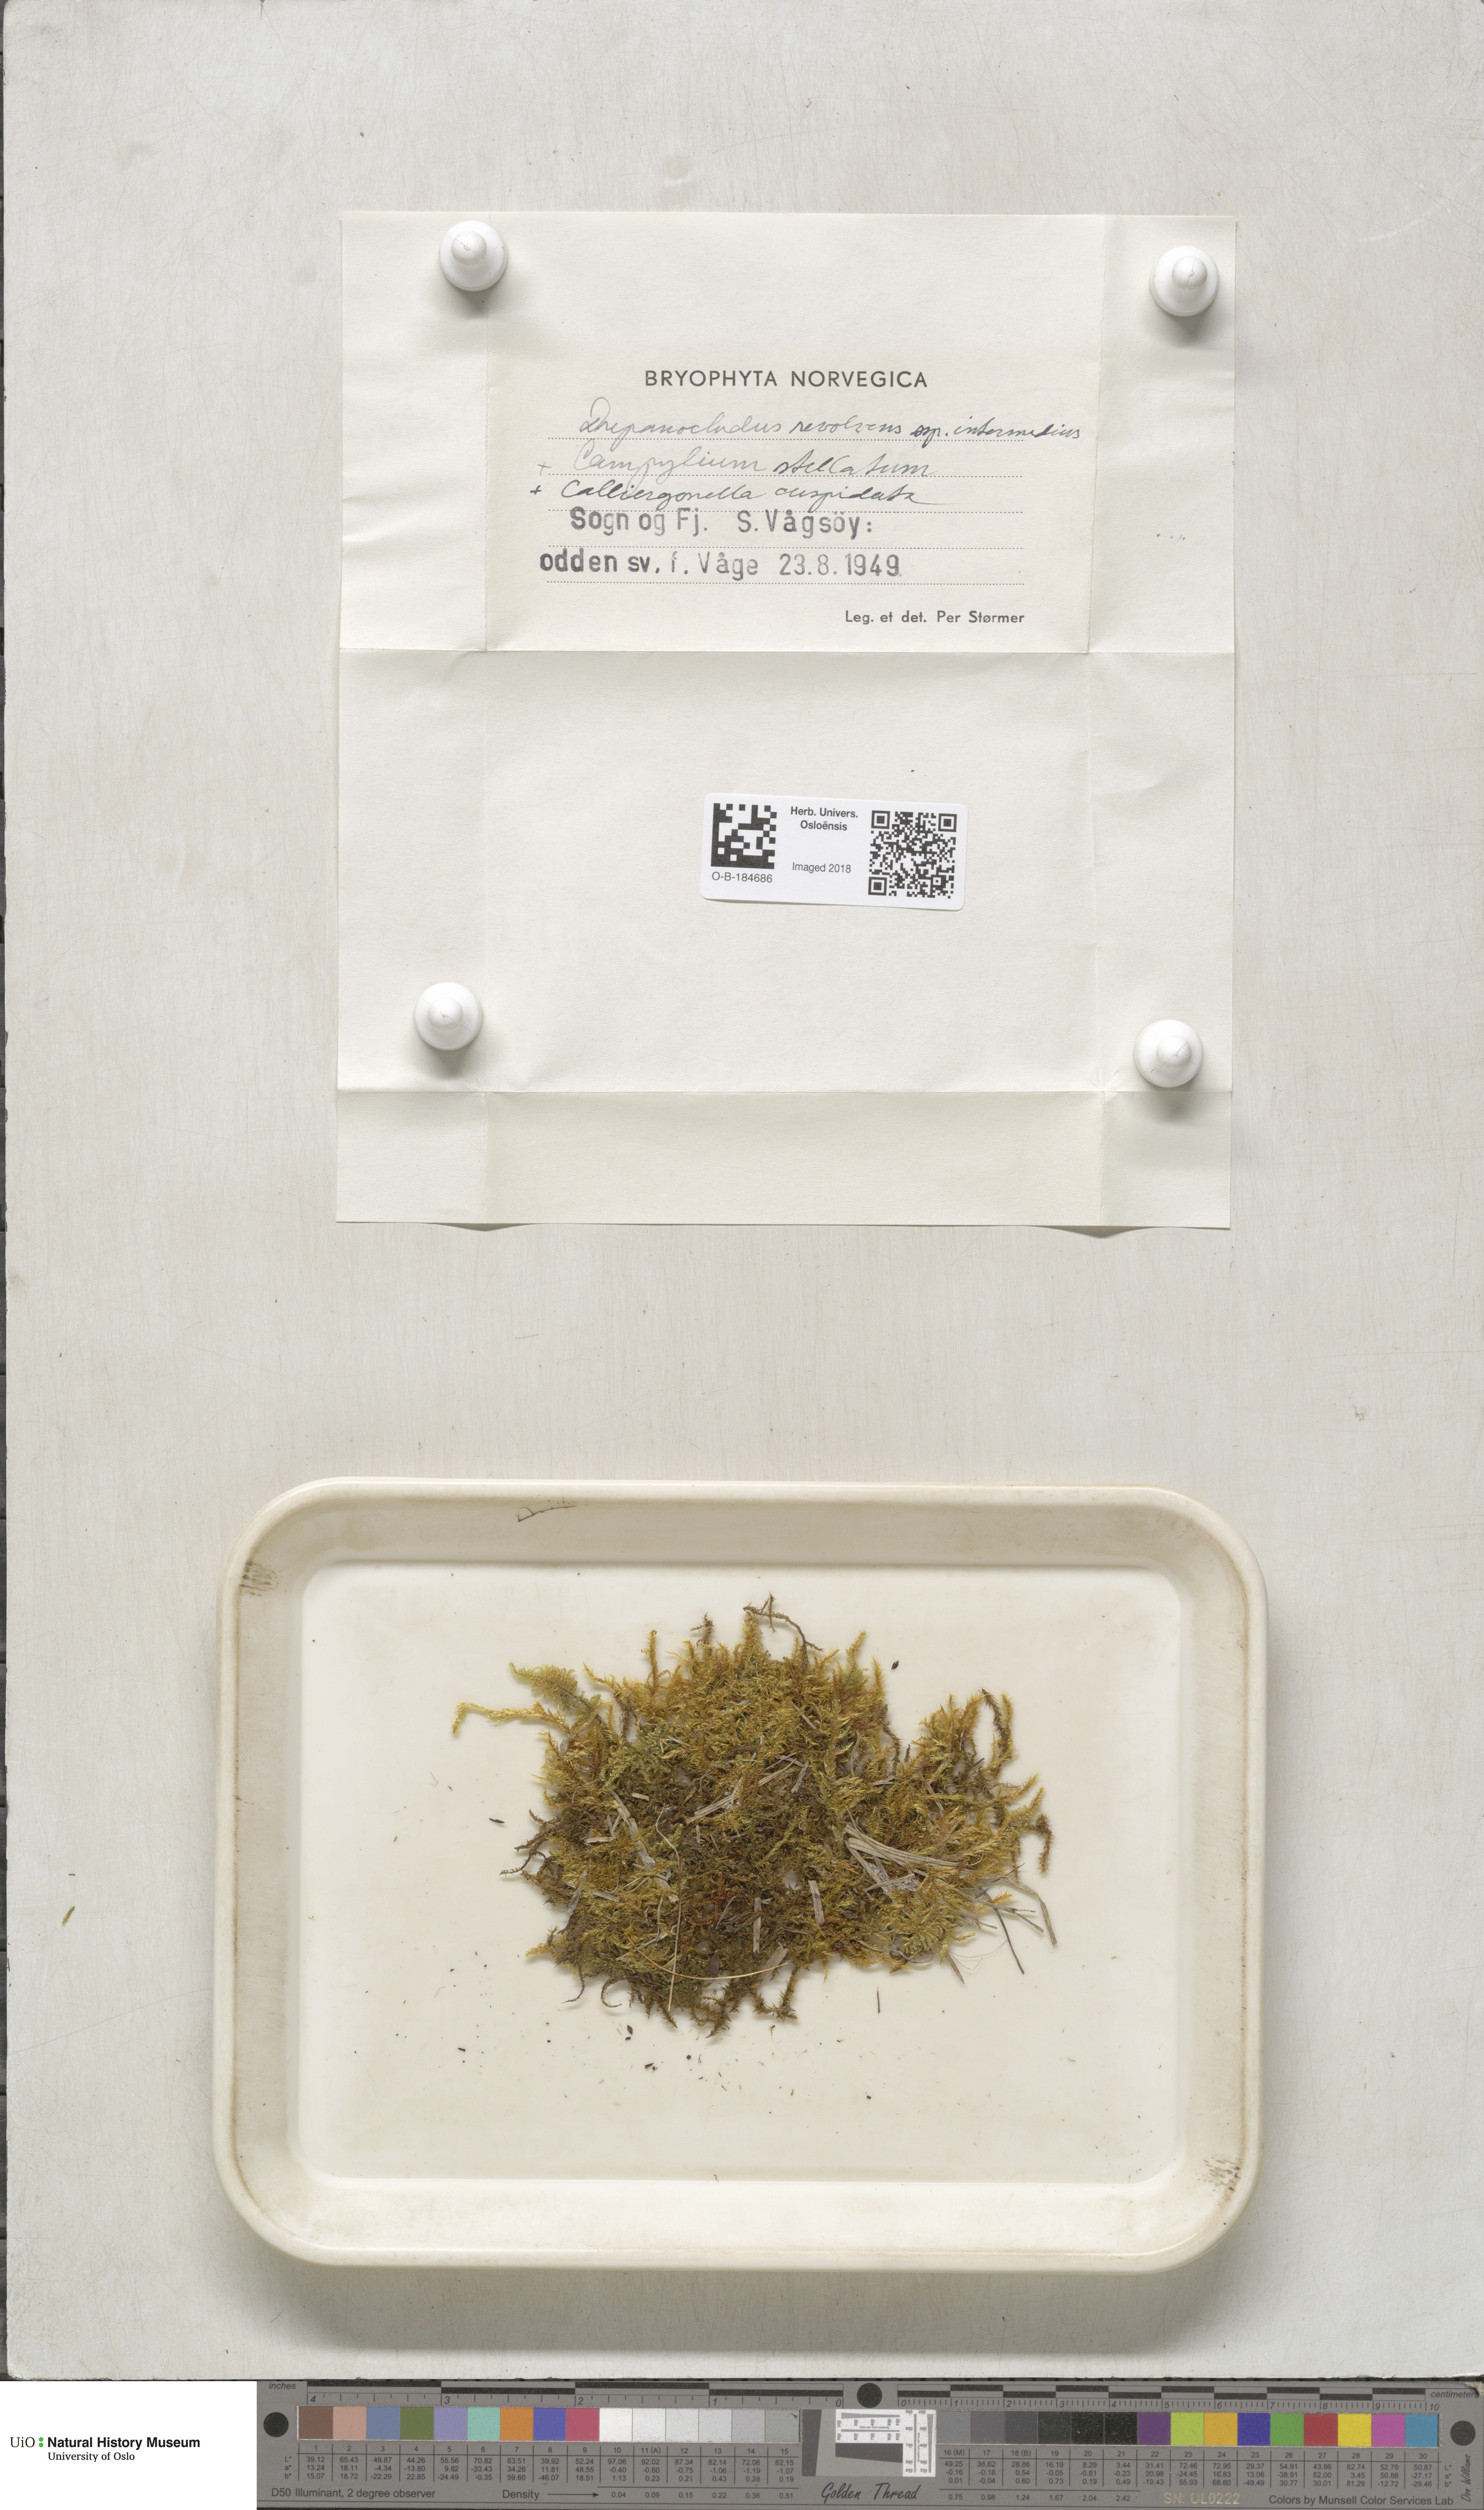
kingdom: Plantae
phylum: Bryophyta
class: Bryopsida
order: Hypnales
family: Scorpidiaceae
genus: Scorpidium
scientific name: Scorpidium cossonii
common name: Cosson's hook moss
